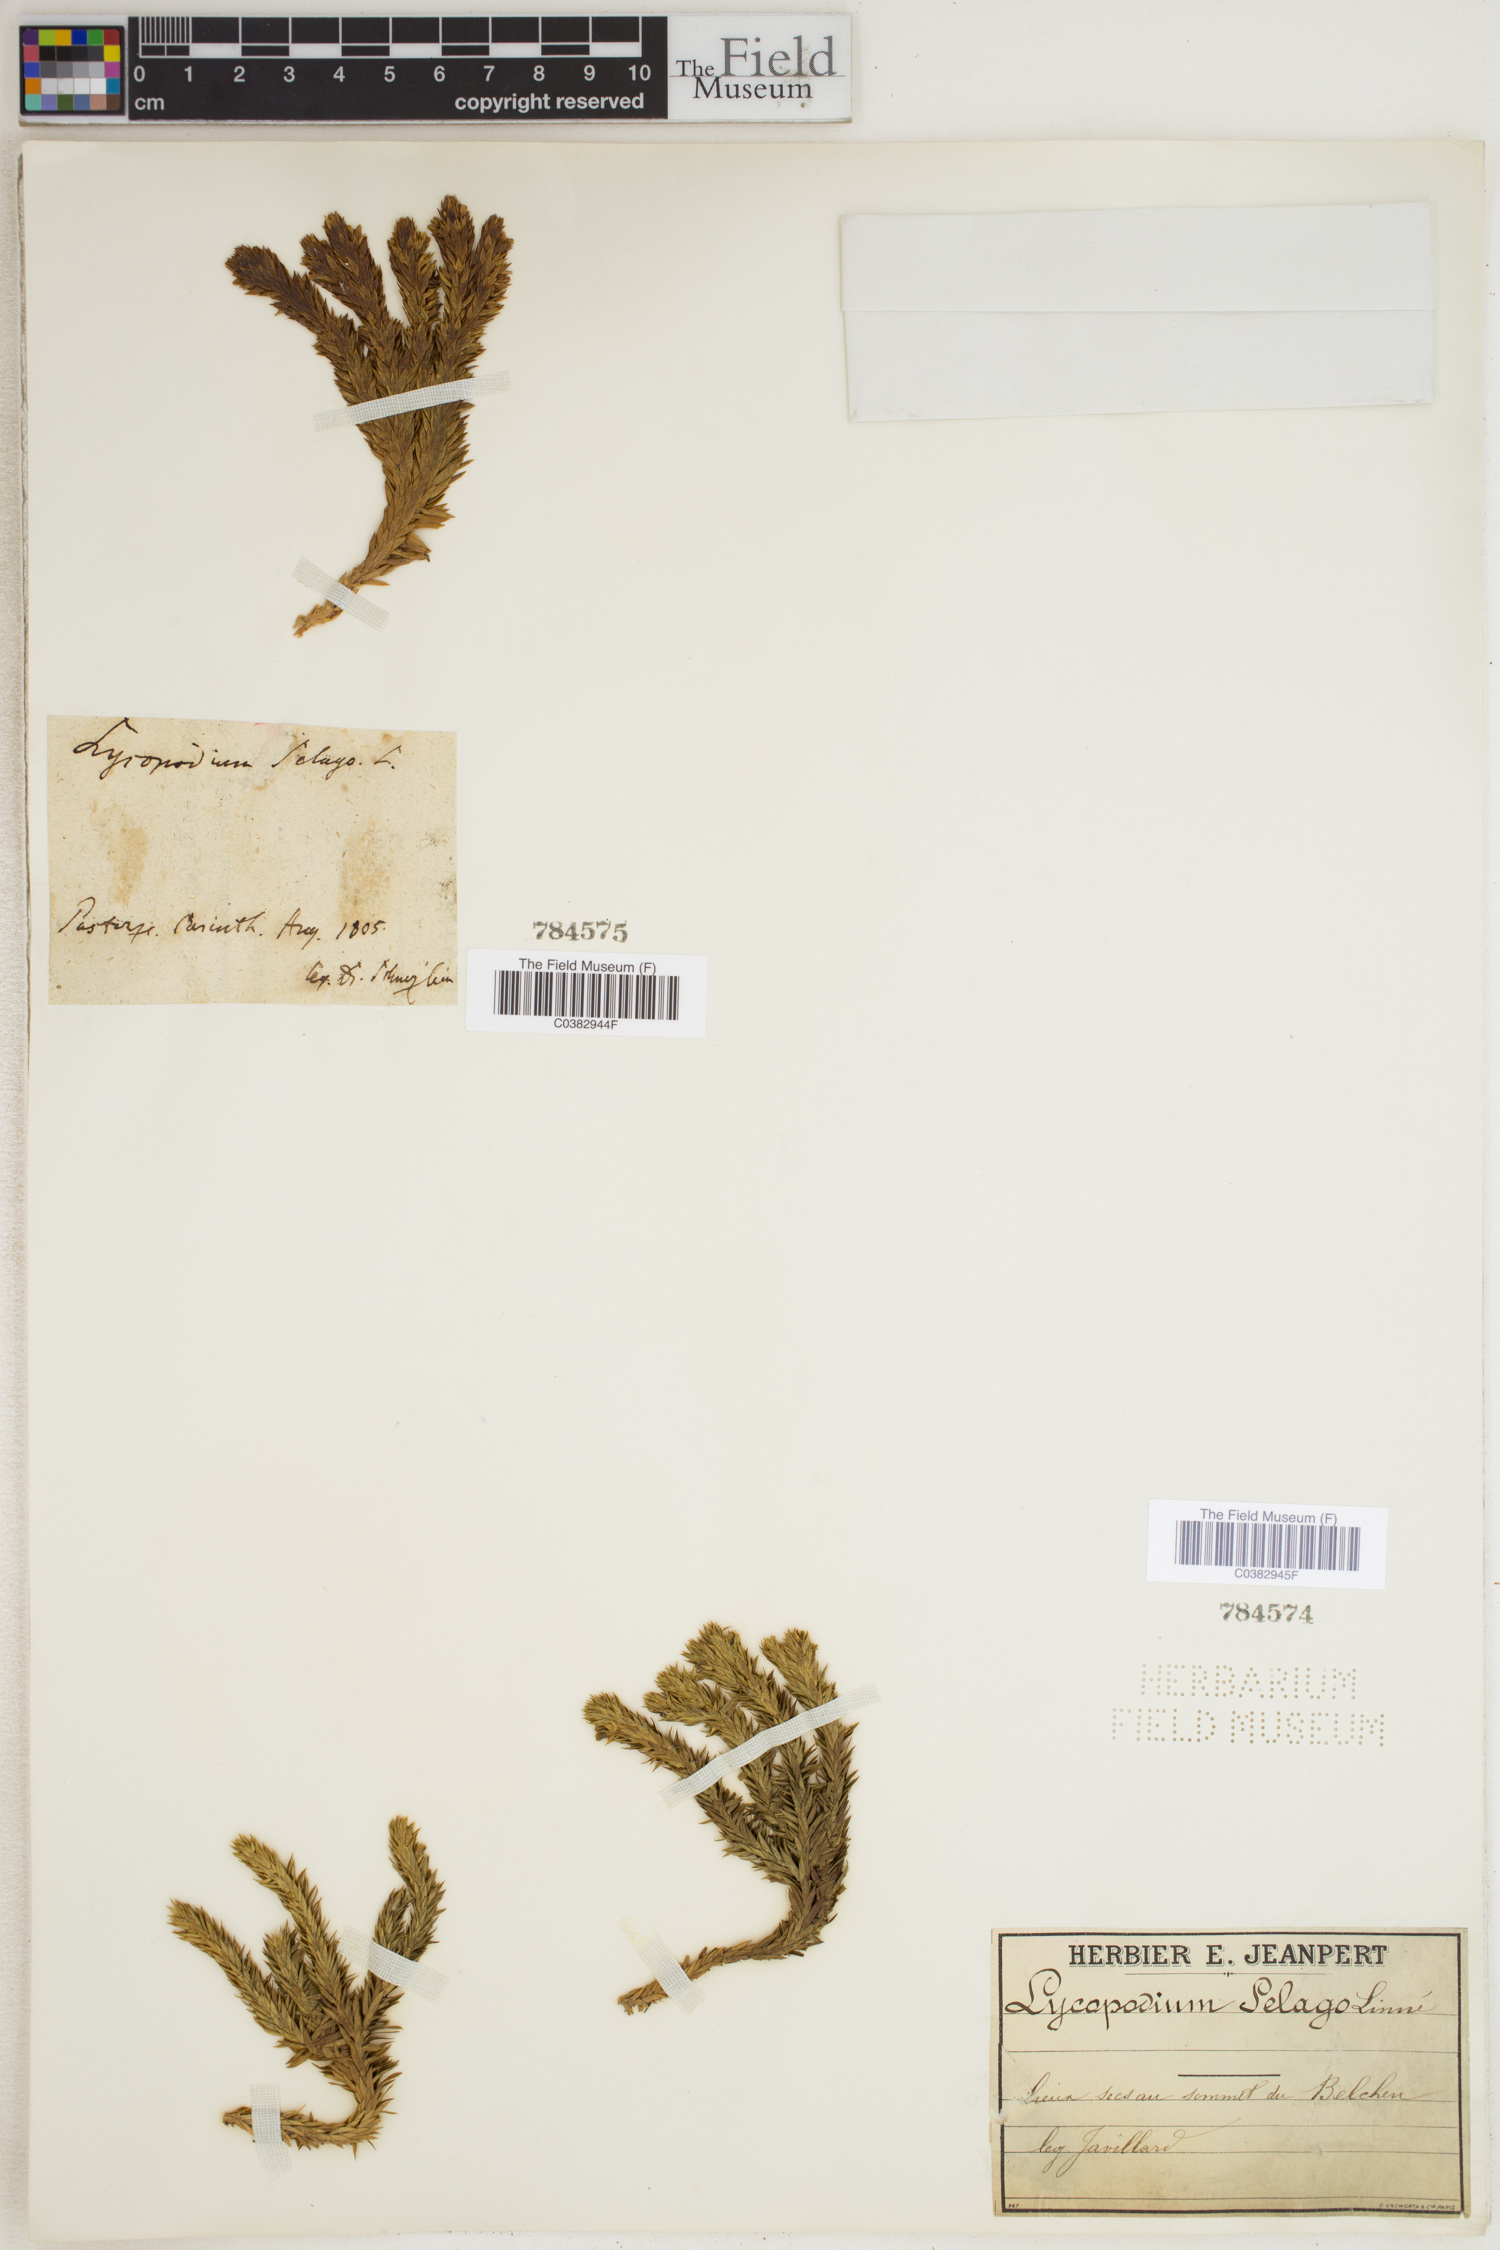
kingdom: Plantae
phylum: Tracheophyta
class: Lycopodiopsida
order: Lycopodiales
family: Lycopodiaceae
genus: Huperzia
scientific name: Huperzia selago
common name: Northern firmoss
